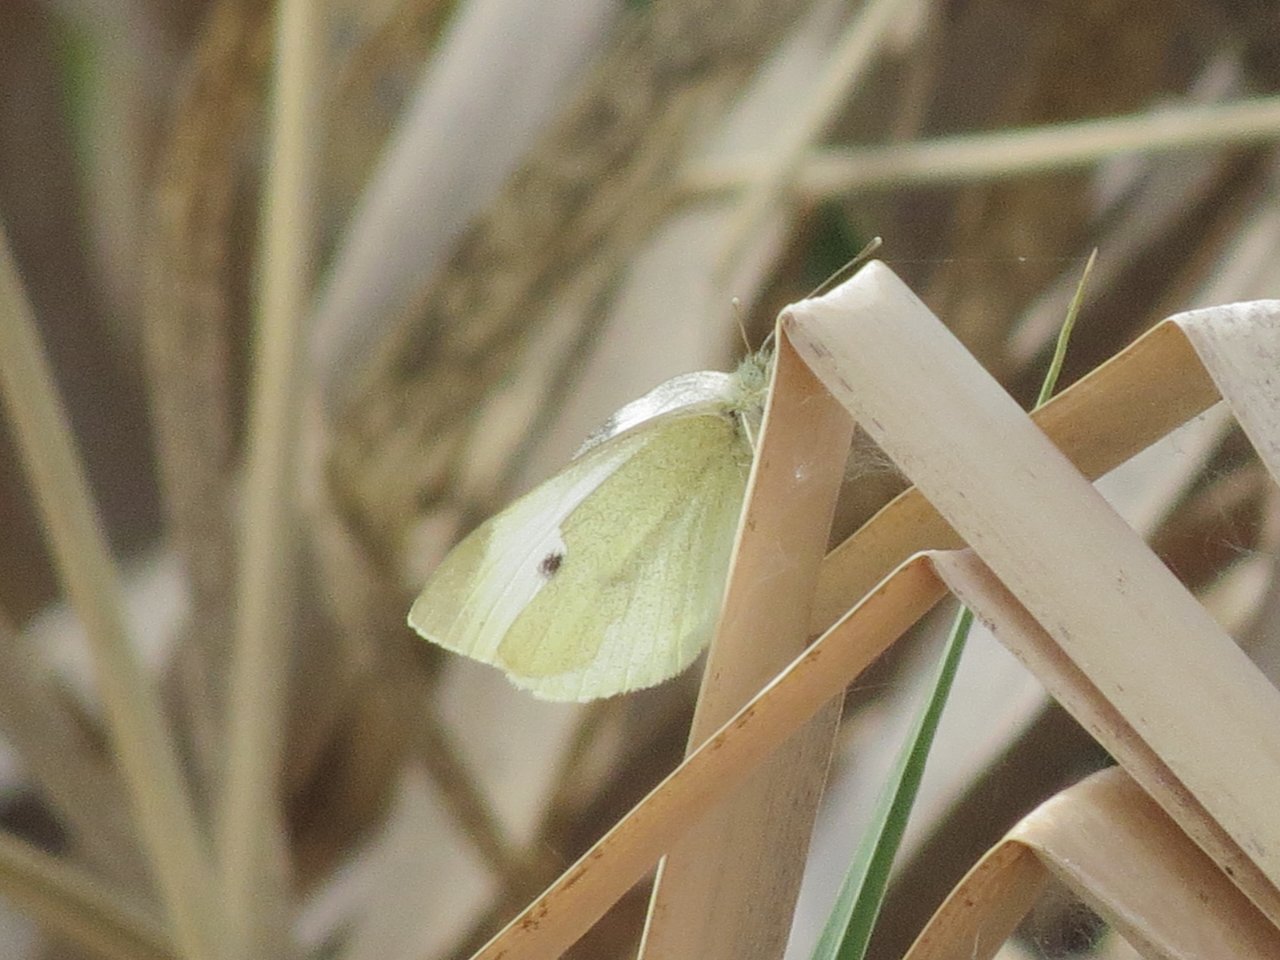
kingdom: Animalia
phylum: Arthropoda
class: Insecta
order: Lepidoptera
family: Pieridae
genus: Pieris
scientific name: Pieris rapae
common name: Cabbage White
